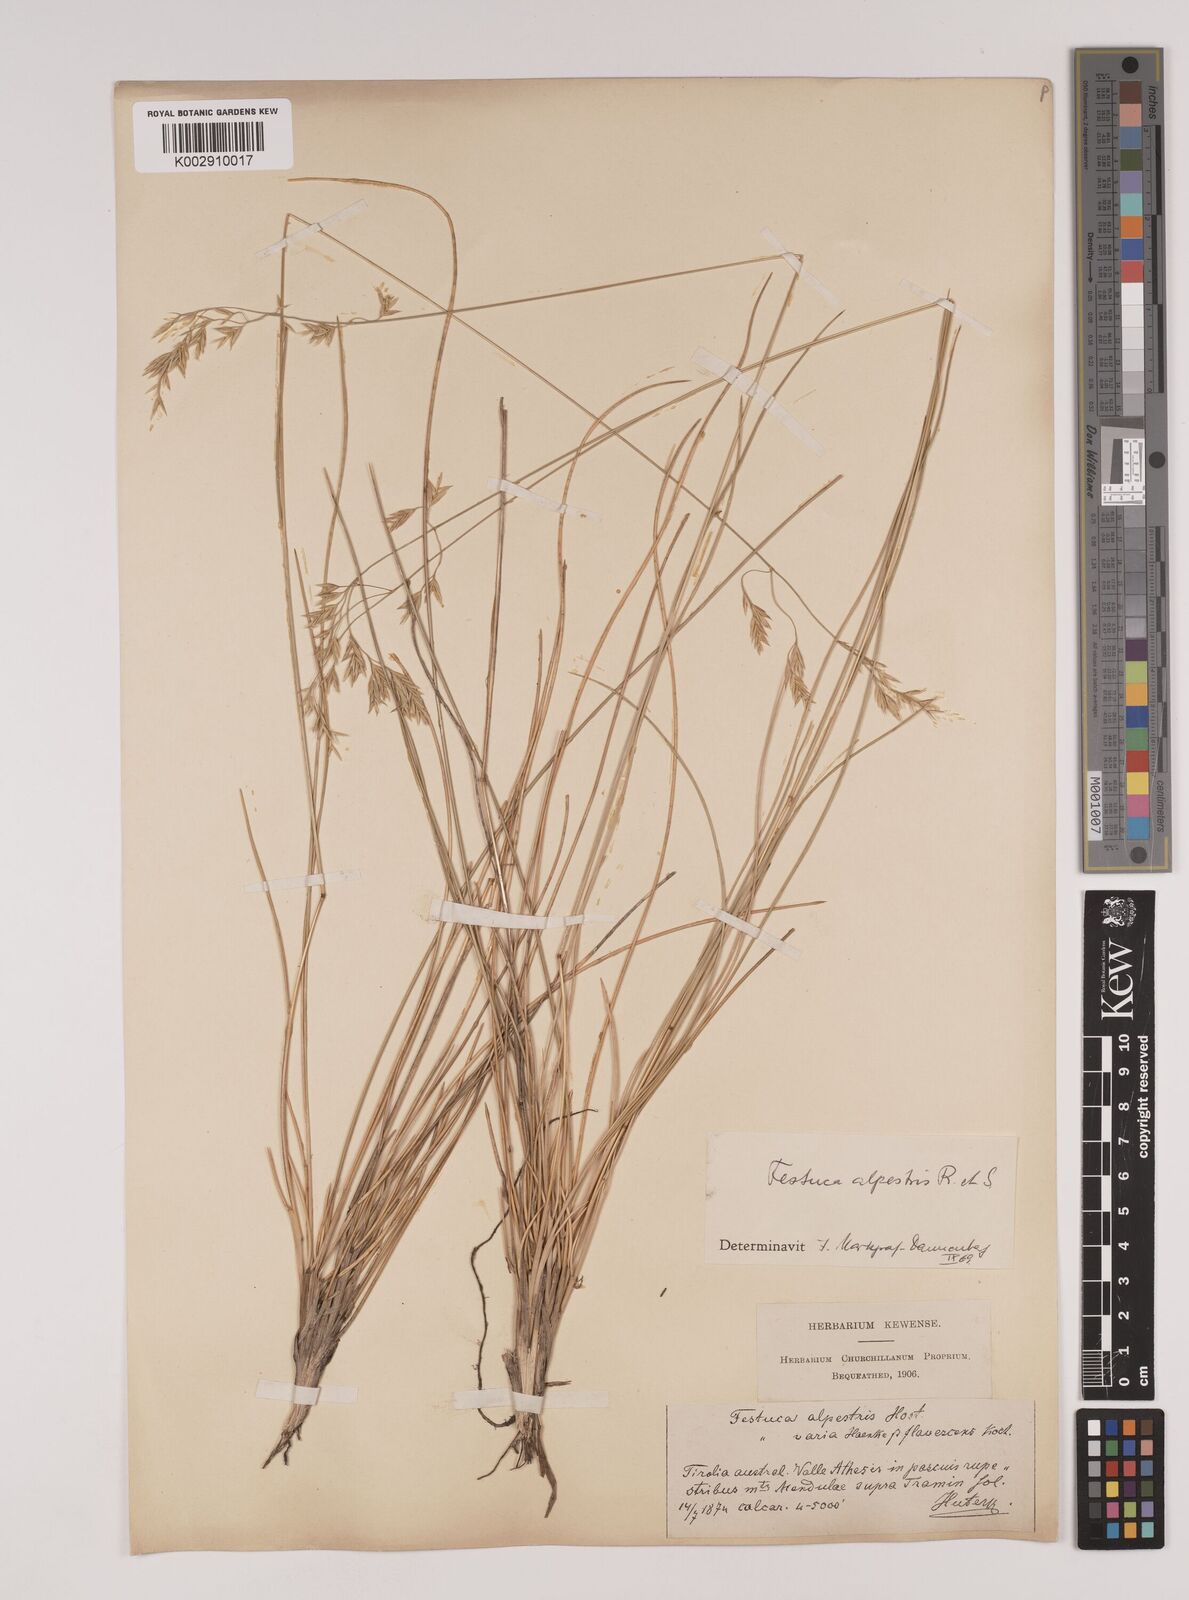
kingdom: Plantae
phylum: Tracheophyta
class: Liliopsida
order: Poales
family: Poaceae
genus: Festuca
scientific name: Festuca alpestris
